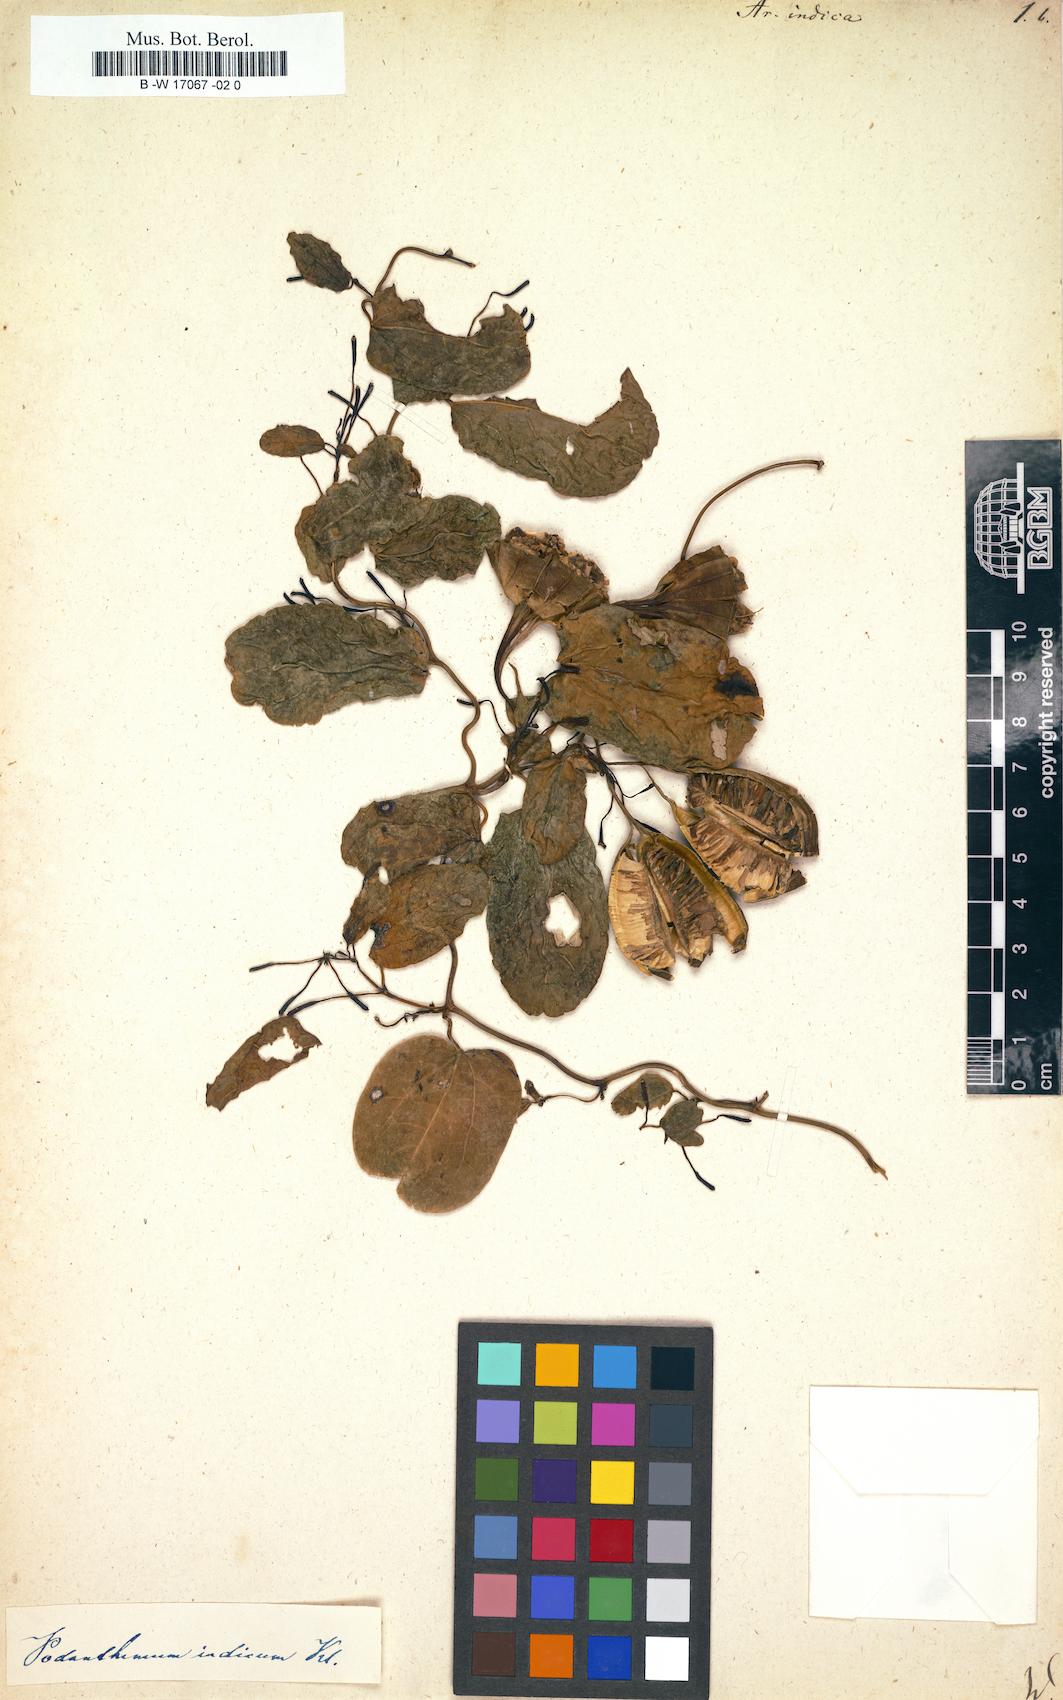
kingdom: Plantae
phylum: Tracheophyta
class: Magnoliopsida
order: Piperales
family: Aristolochiaceae
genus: Aristolochia
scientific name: Aristolochia indica
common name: Indian birthwort
